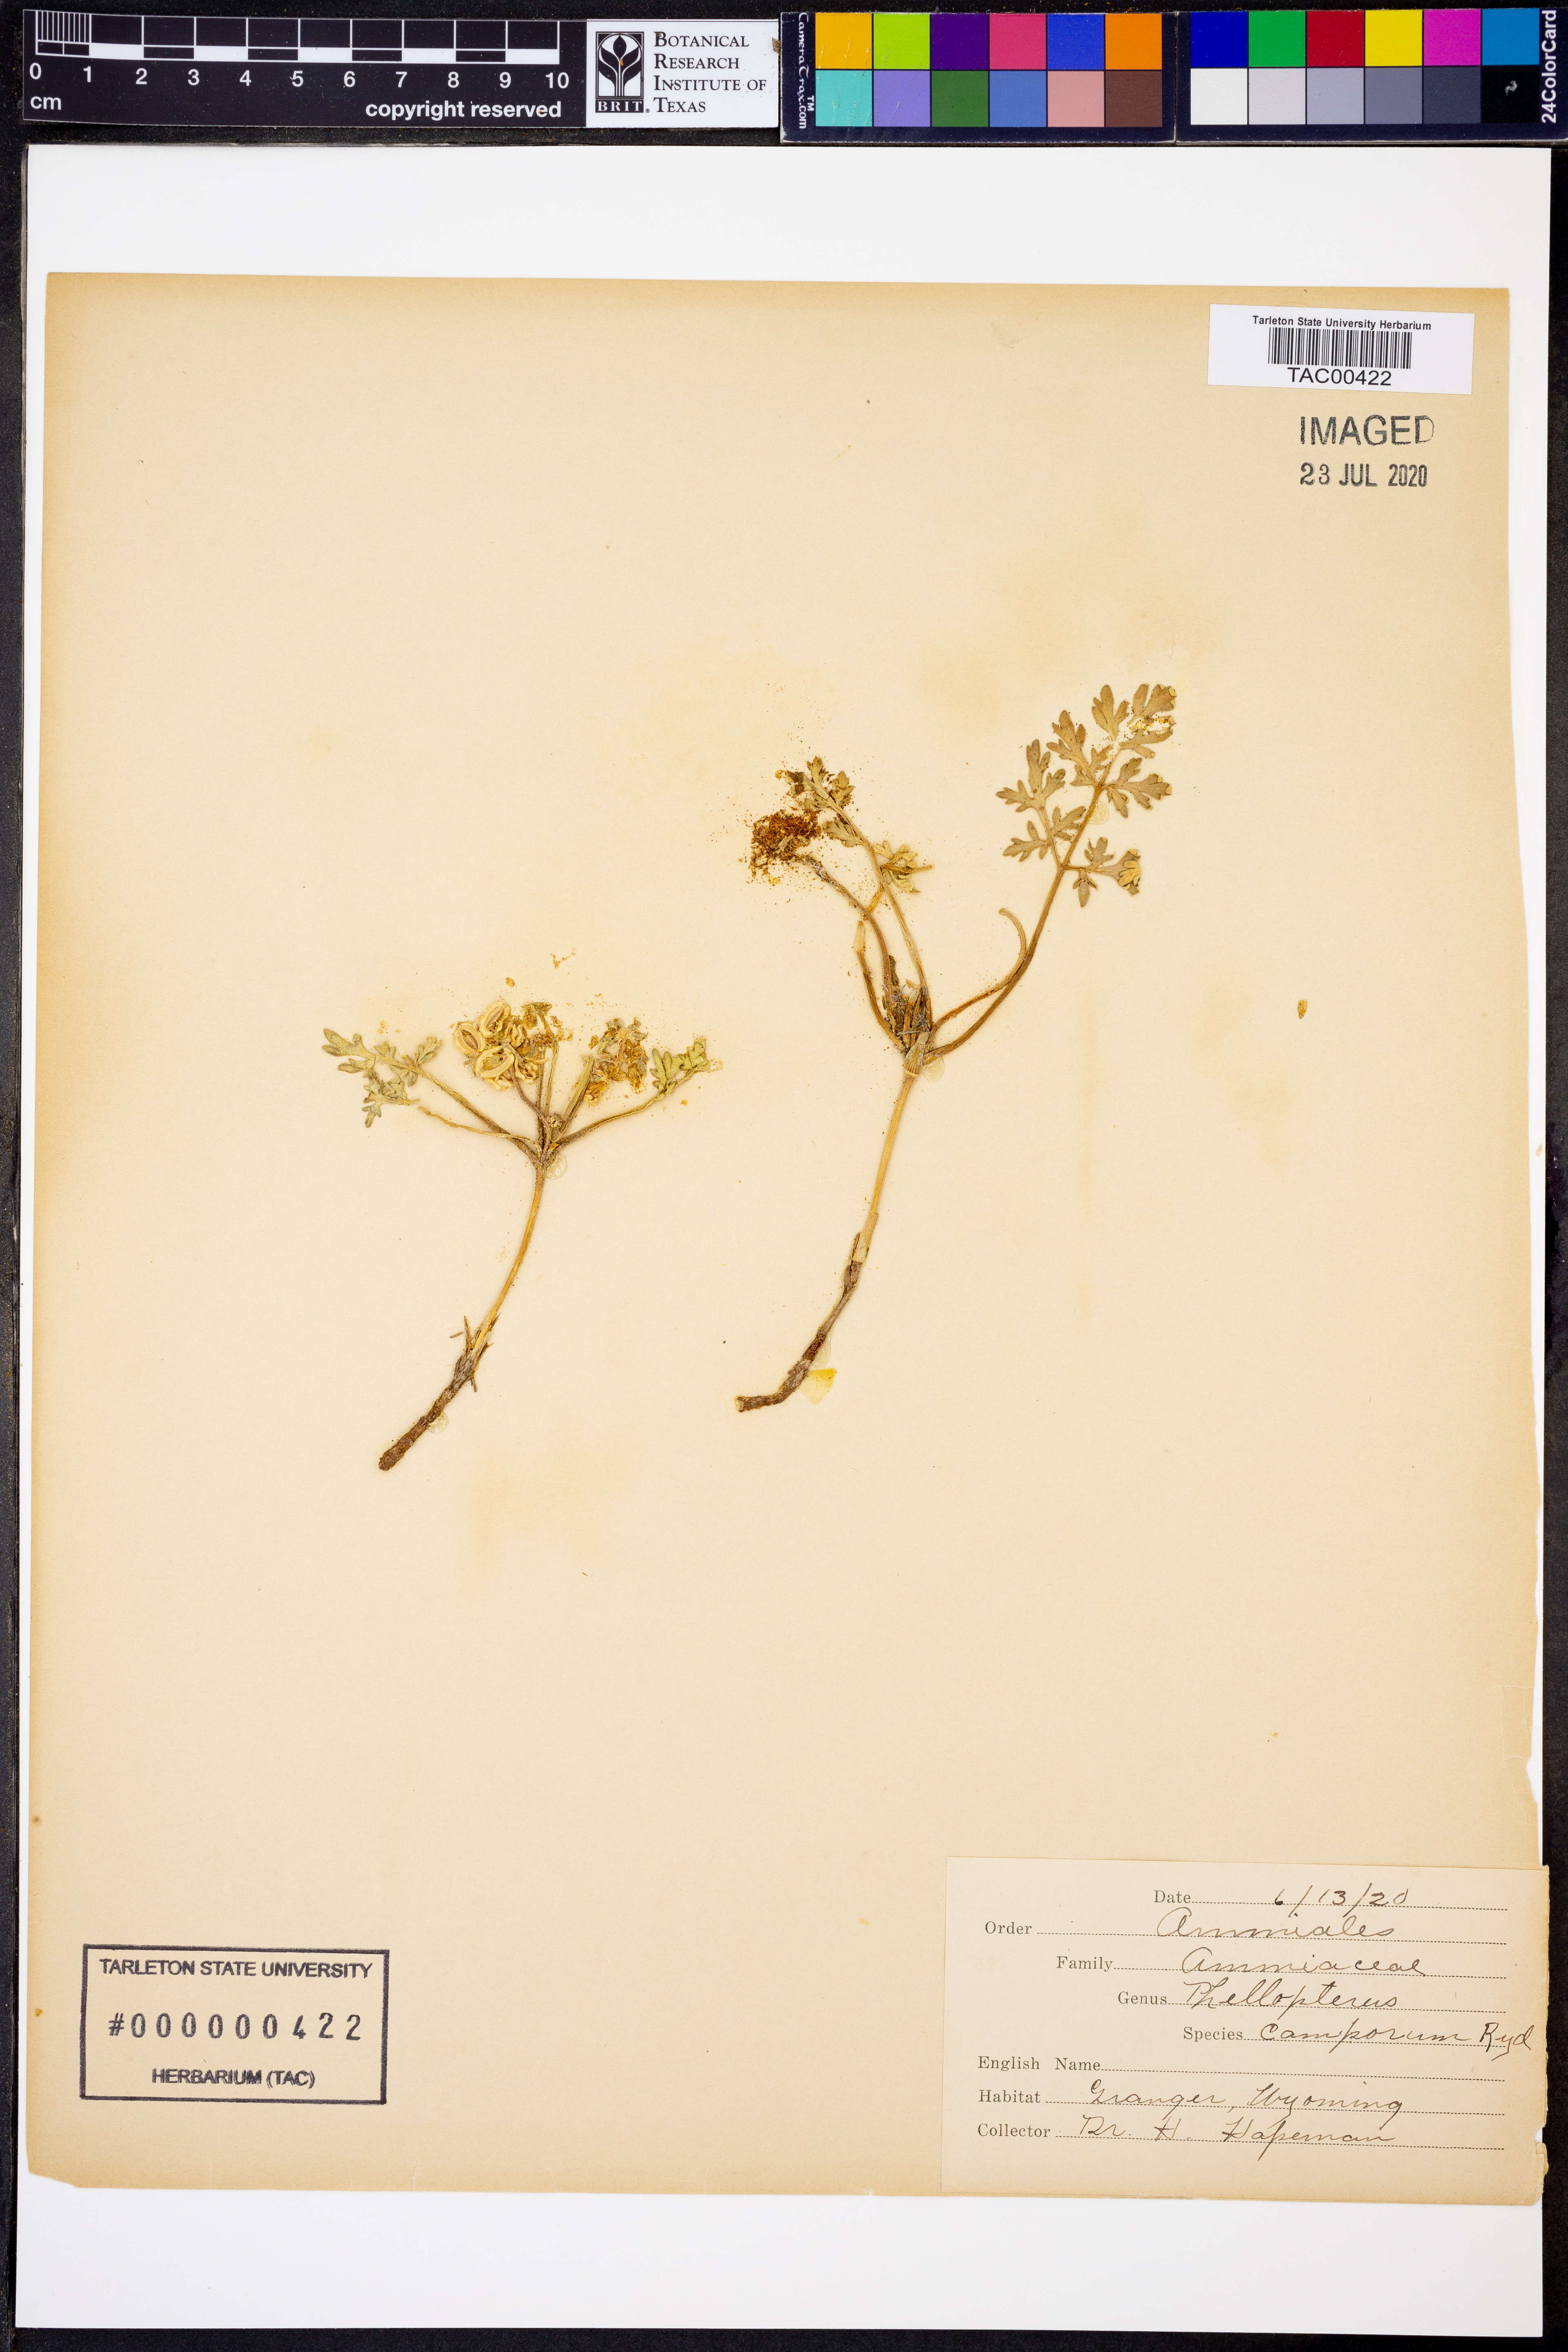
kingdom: Plantae
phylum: Tracheophyta
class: Magnoliopsida
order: Apiales
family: Apiaceae
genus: Vesper
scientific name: Vesper bulbosus
